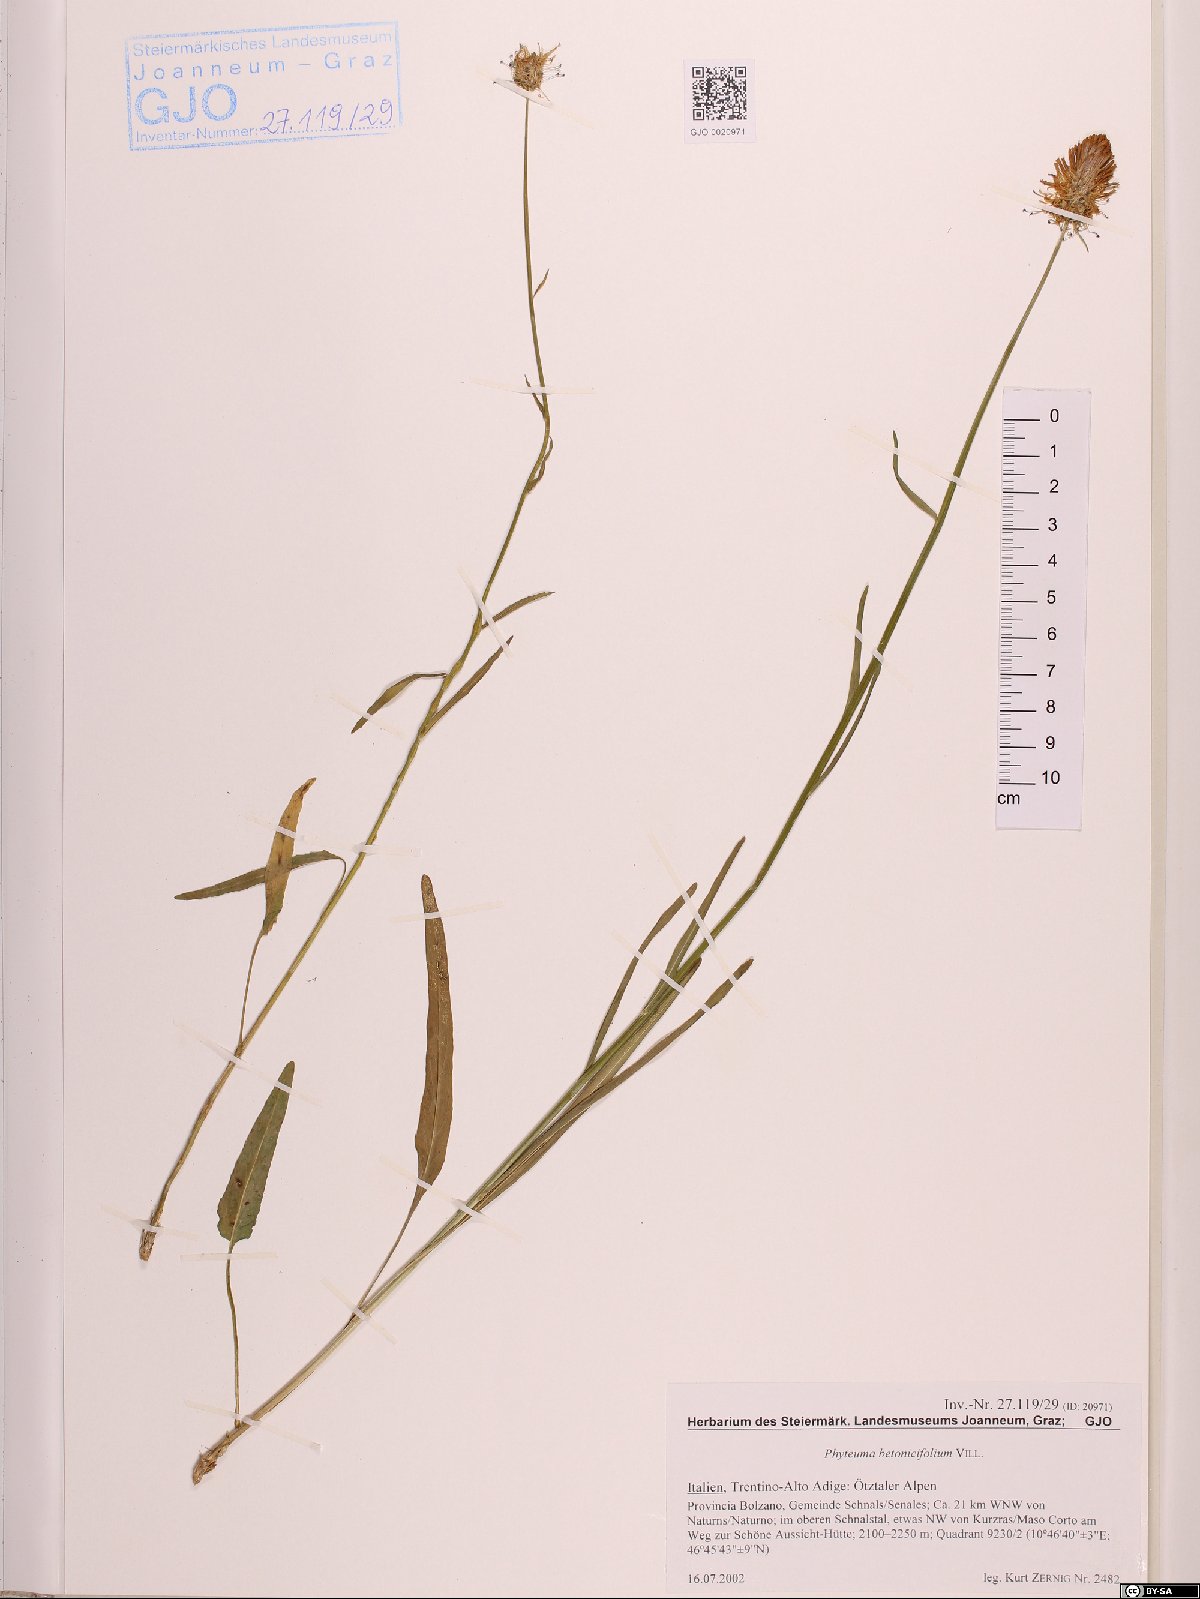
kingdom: Plantae
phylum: Tracheophyta
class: Magnoliopsida
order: Asterales
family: Campanulaceae
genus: Phyteuma
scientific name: Phyteuma betonicifolium
